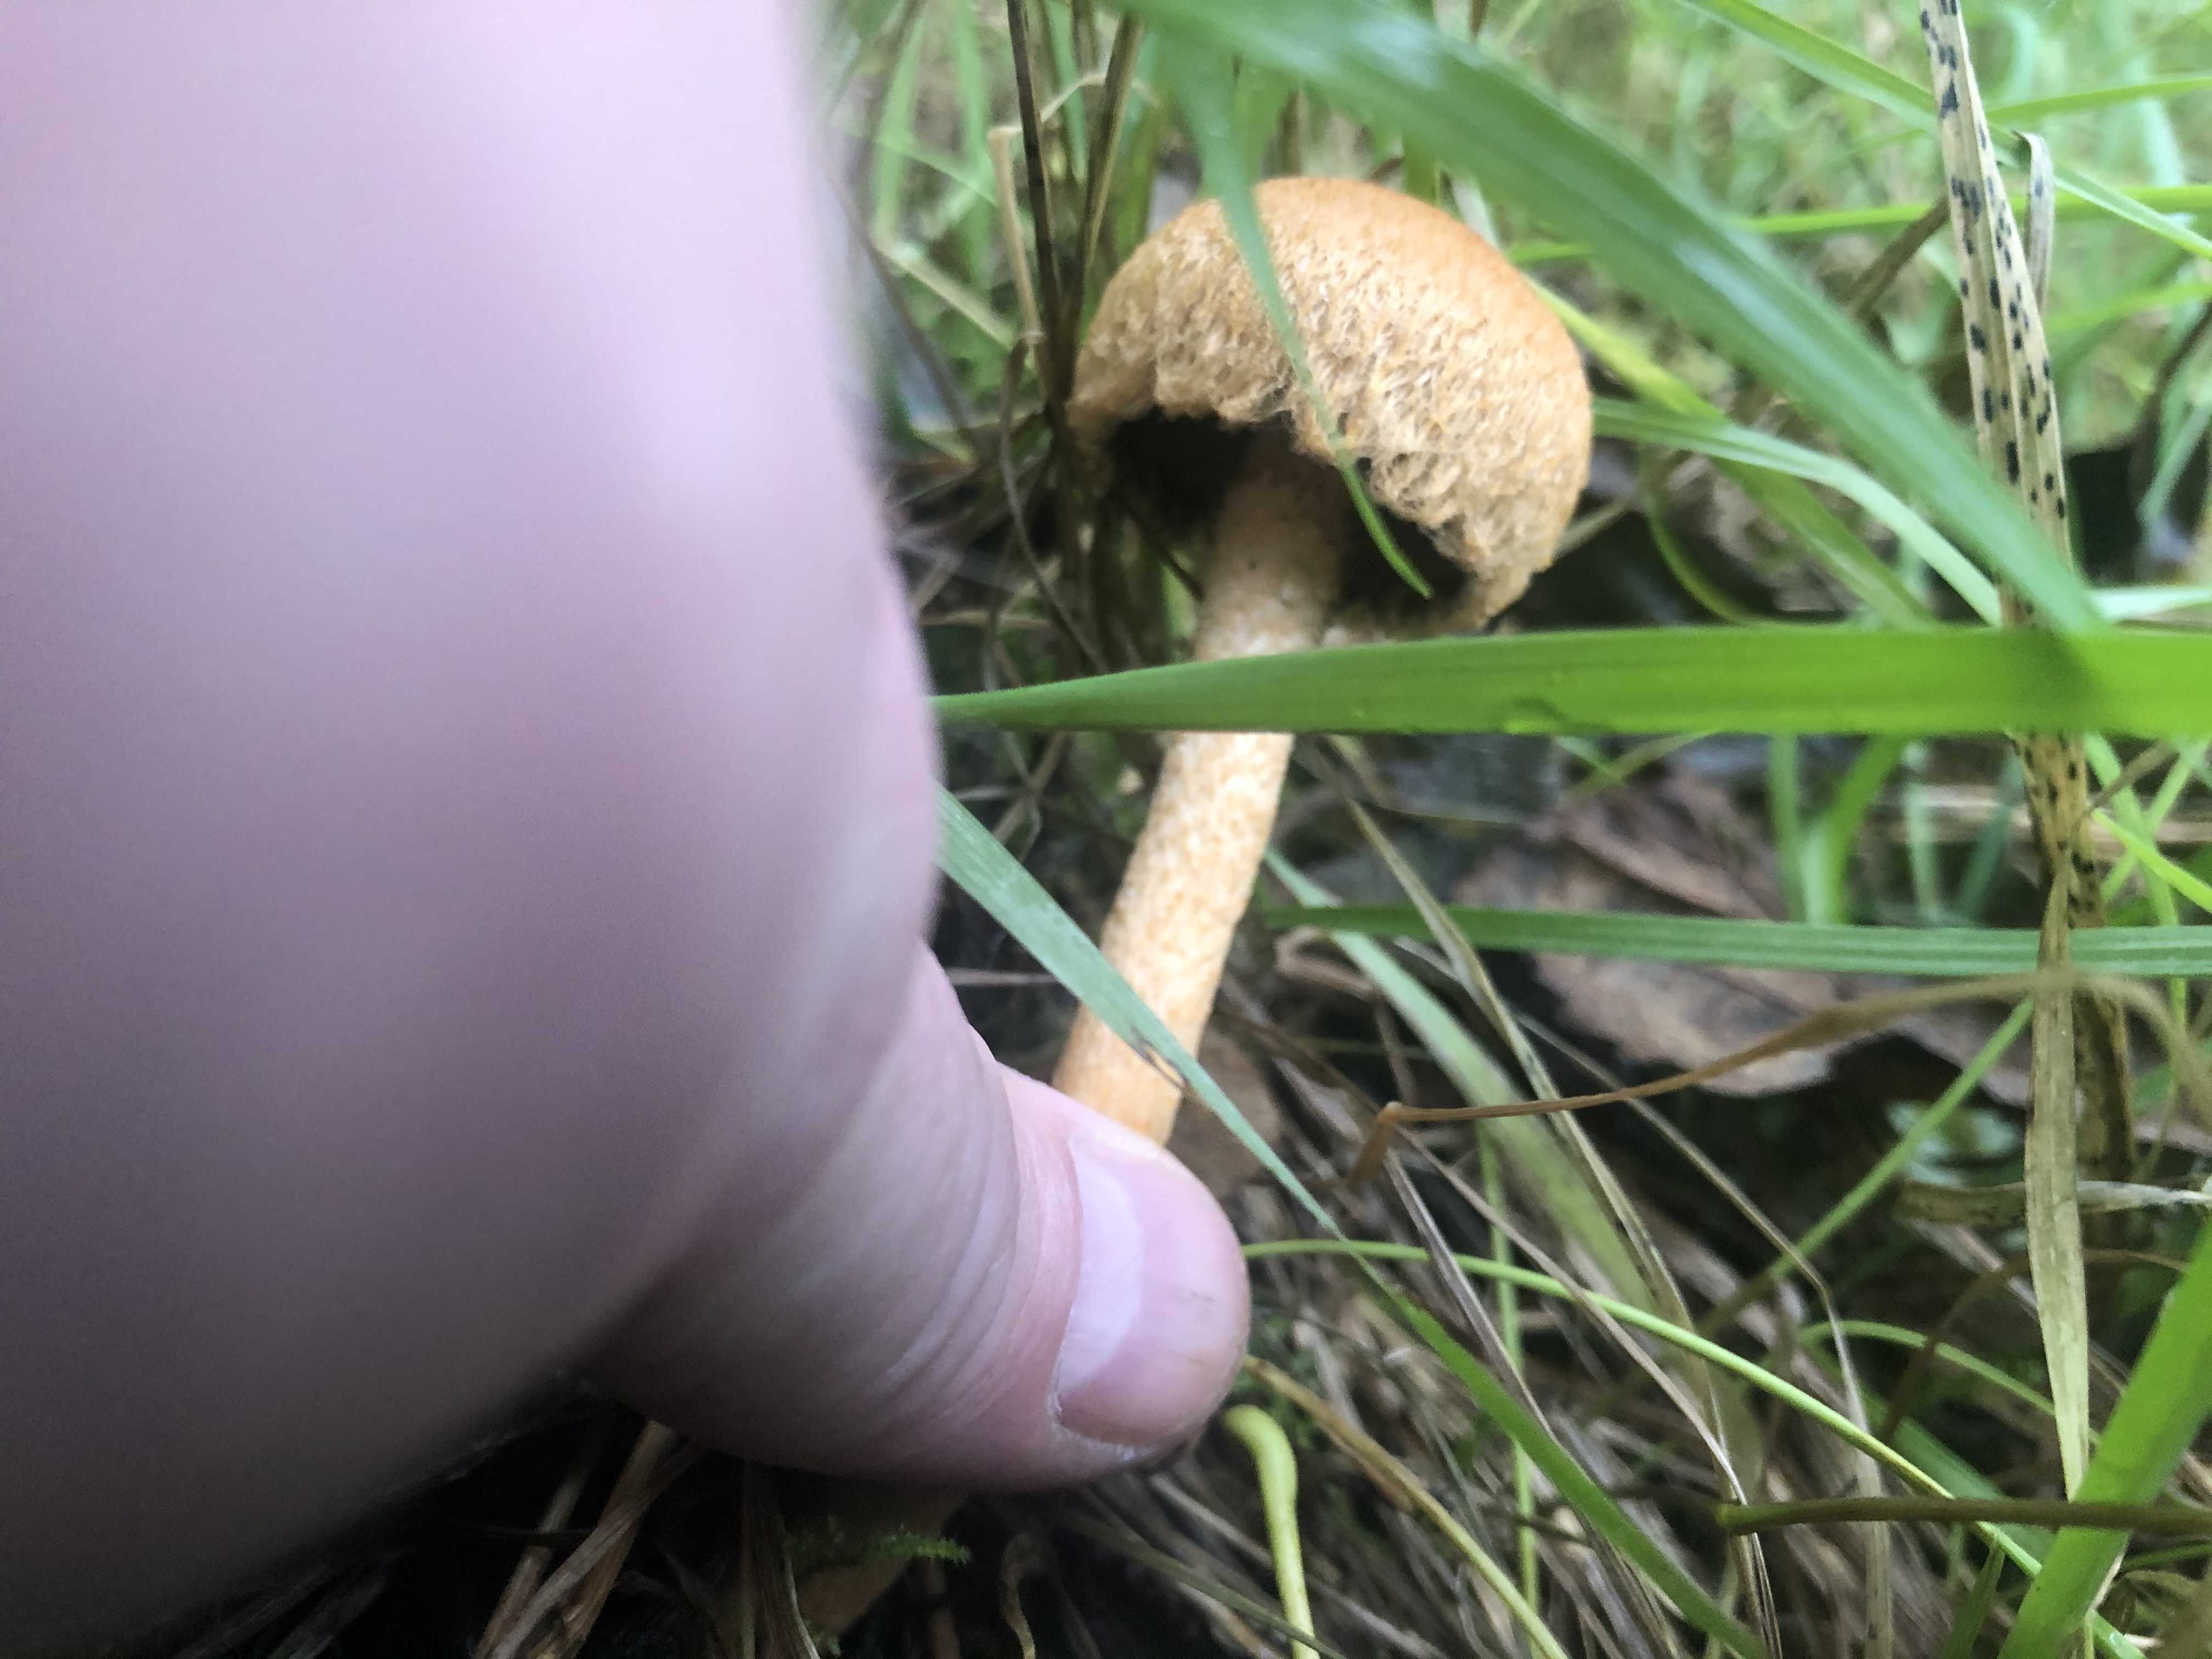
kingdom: Fungi
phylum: Basidiomycota
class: Agaricomycetes
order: Agaricales
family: Psathyrellaceae
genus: Lacrymaria
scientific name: Lacrymaria lacrymabunda
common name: grædende mørkhat
